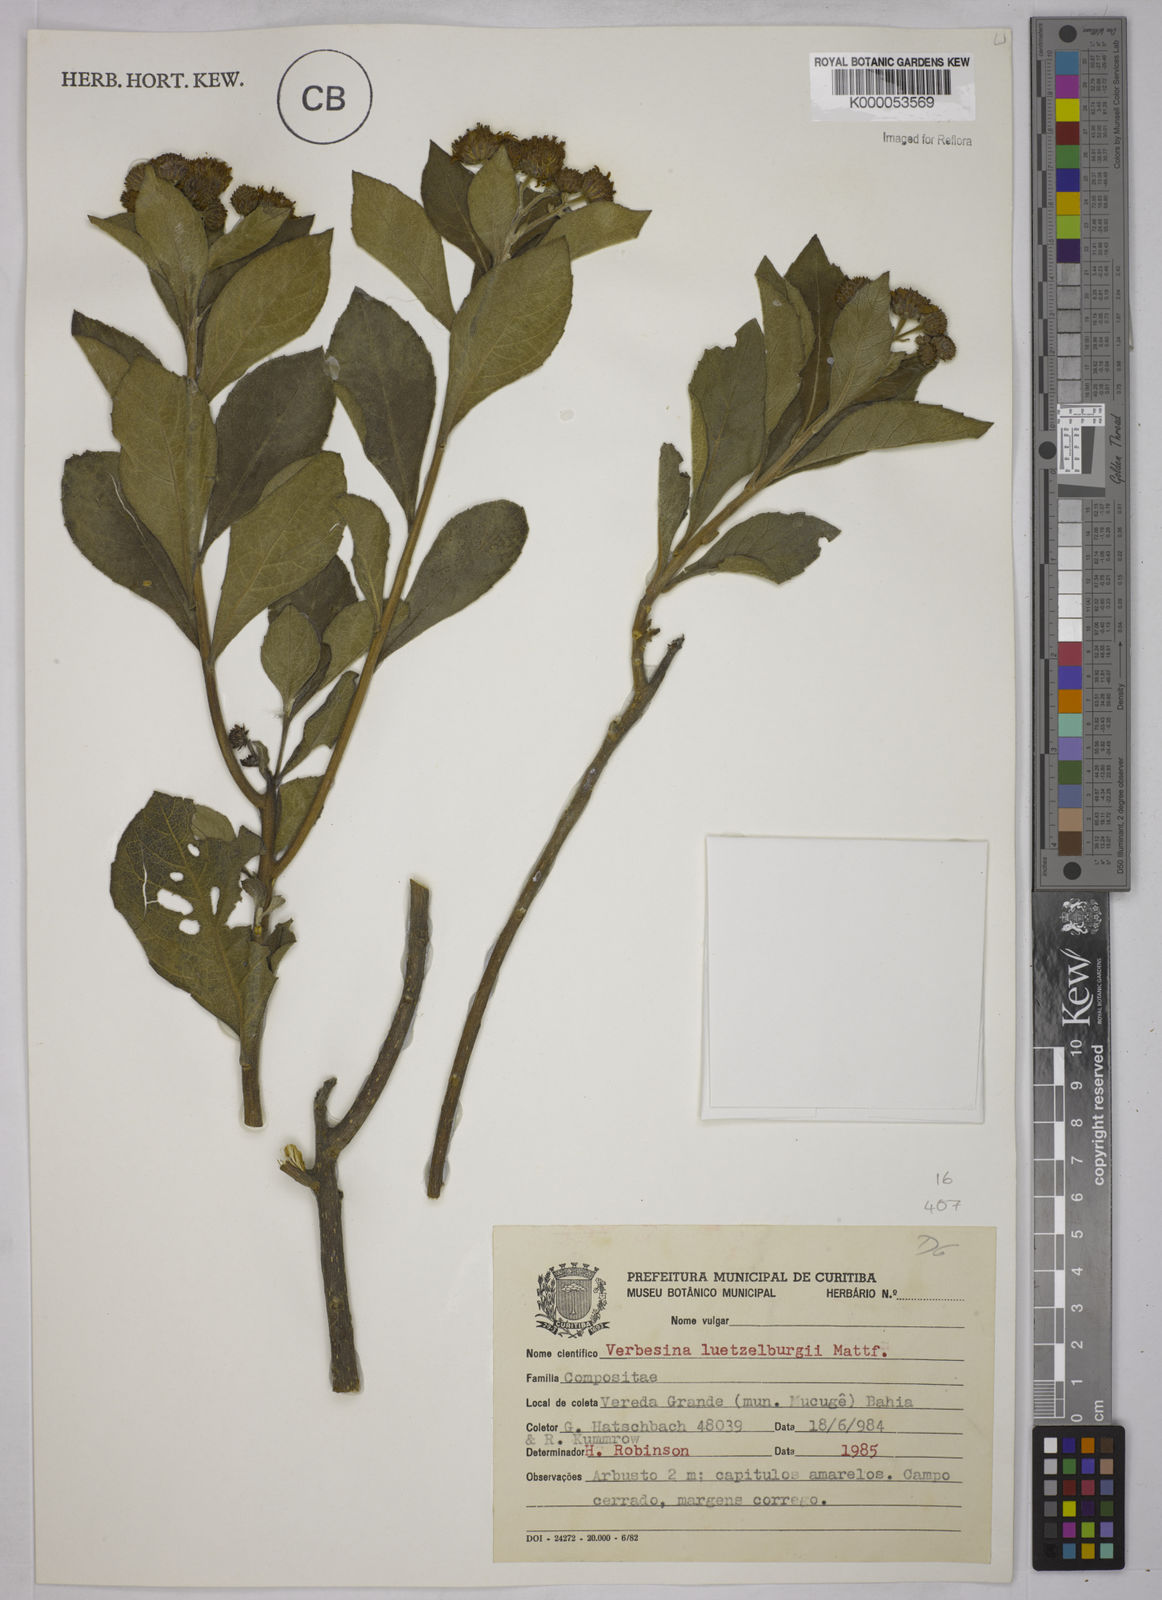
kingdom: Plantae
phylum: Tracheophyta
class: Magnoliopsida
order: Asterales
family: Asteraceae
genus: Verbesina
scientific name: Verbesina luetzelburgii
